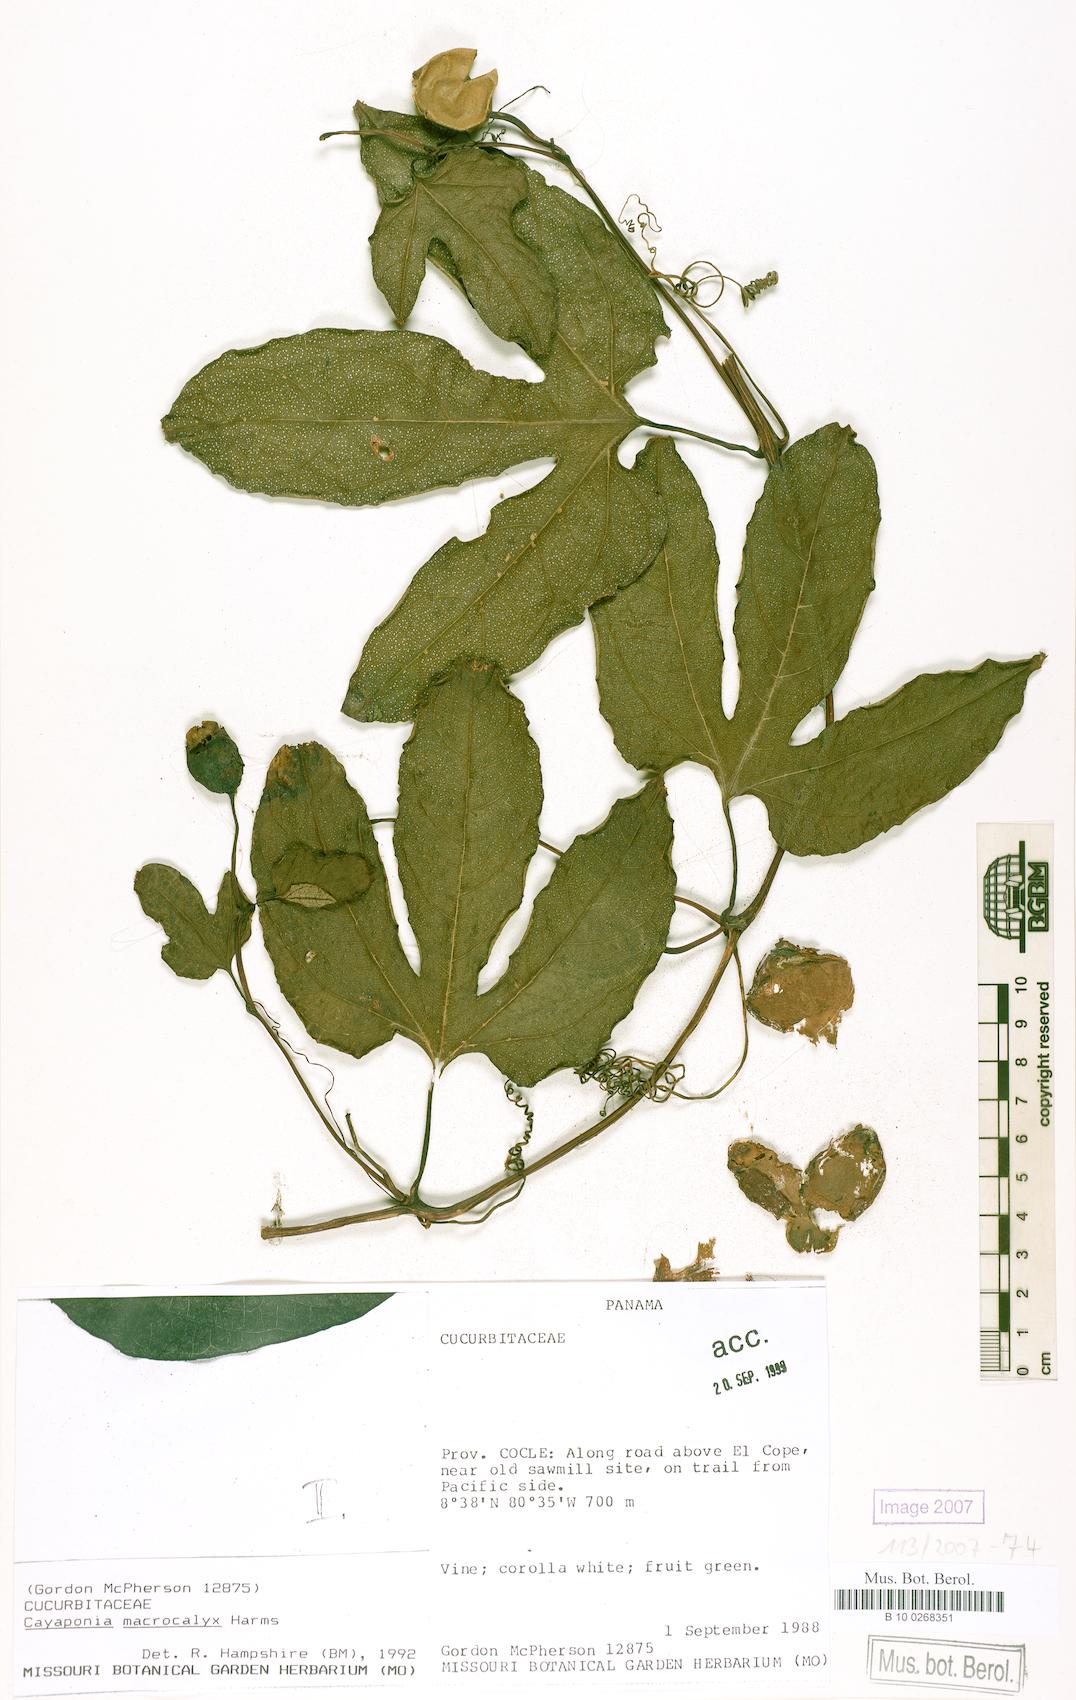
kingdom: Plantae
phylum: Tracheophyta
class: Magnoliopsida
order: Cucurbitales
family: Cucurbitaceae
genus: Cayaponia
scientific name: Cayaponia macrocalyx
